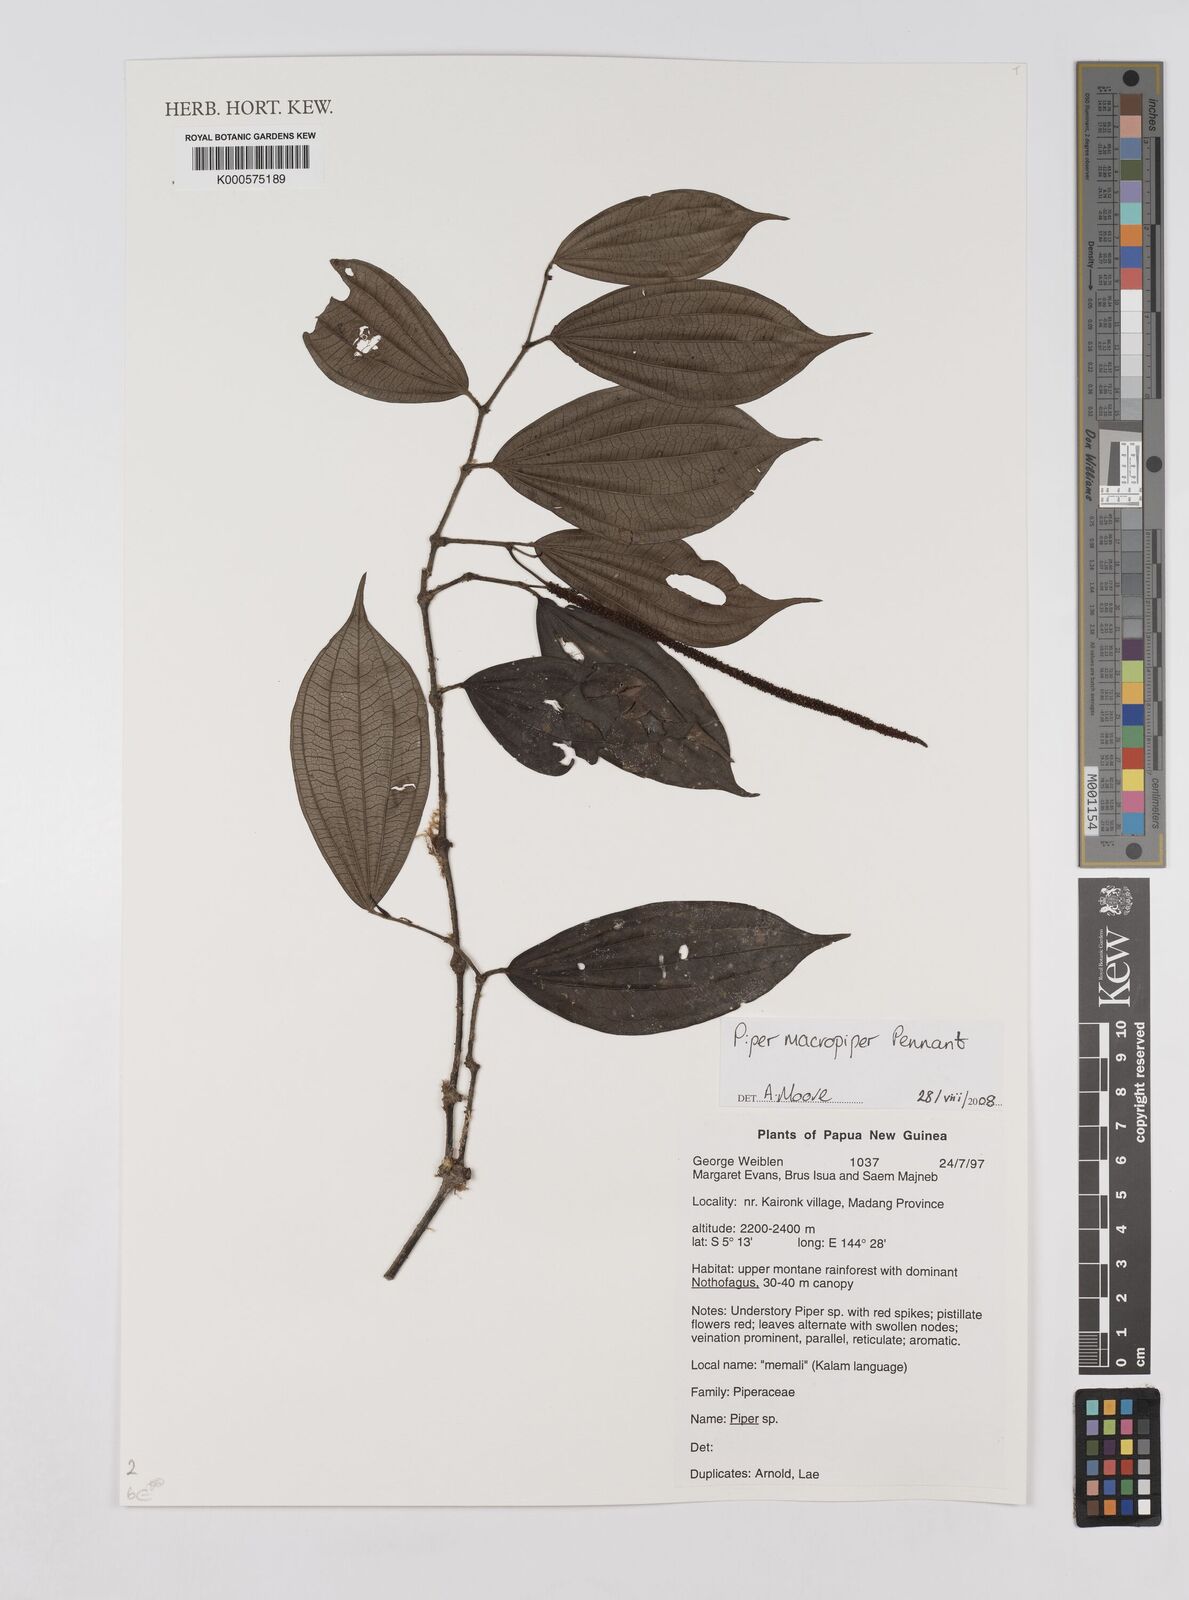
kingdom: Plantae
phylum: Tracheophyta
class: Magnoliopsida
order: Piperales
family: Piperaceae
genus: Piper
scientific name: Piper macropiper
